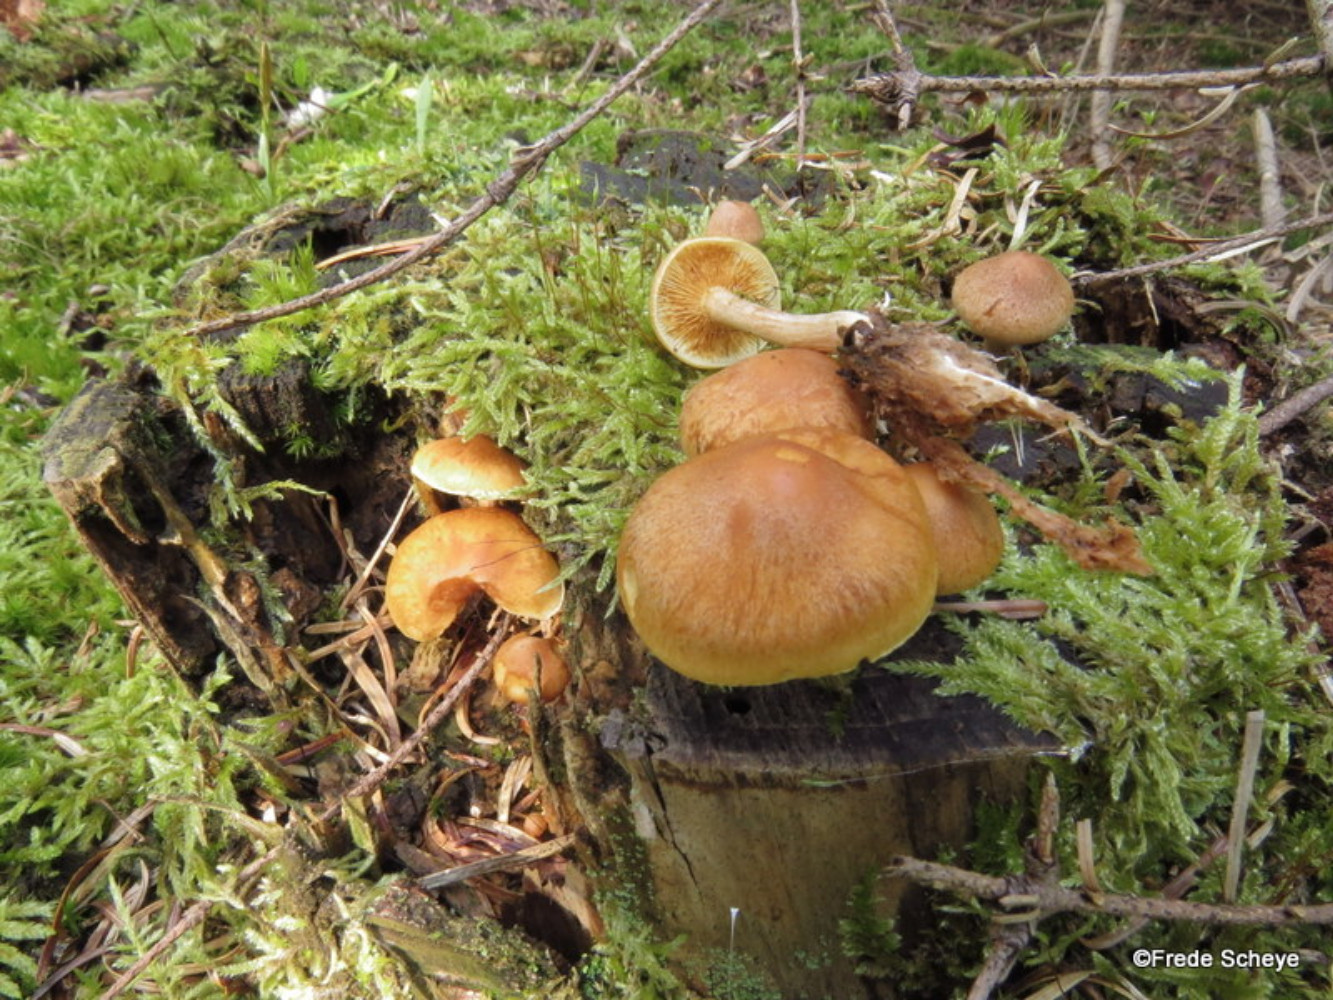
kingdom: Fungi
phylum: Basidiomycota
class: Agaricomycetes
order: Agaricales
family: Hymenogastraceae
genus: Gymnopilus
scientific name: Gymnopilus penetrans
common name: plettet flammehat
